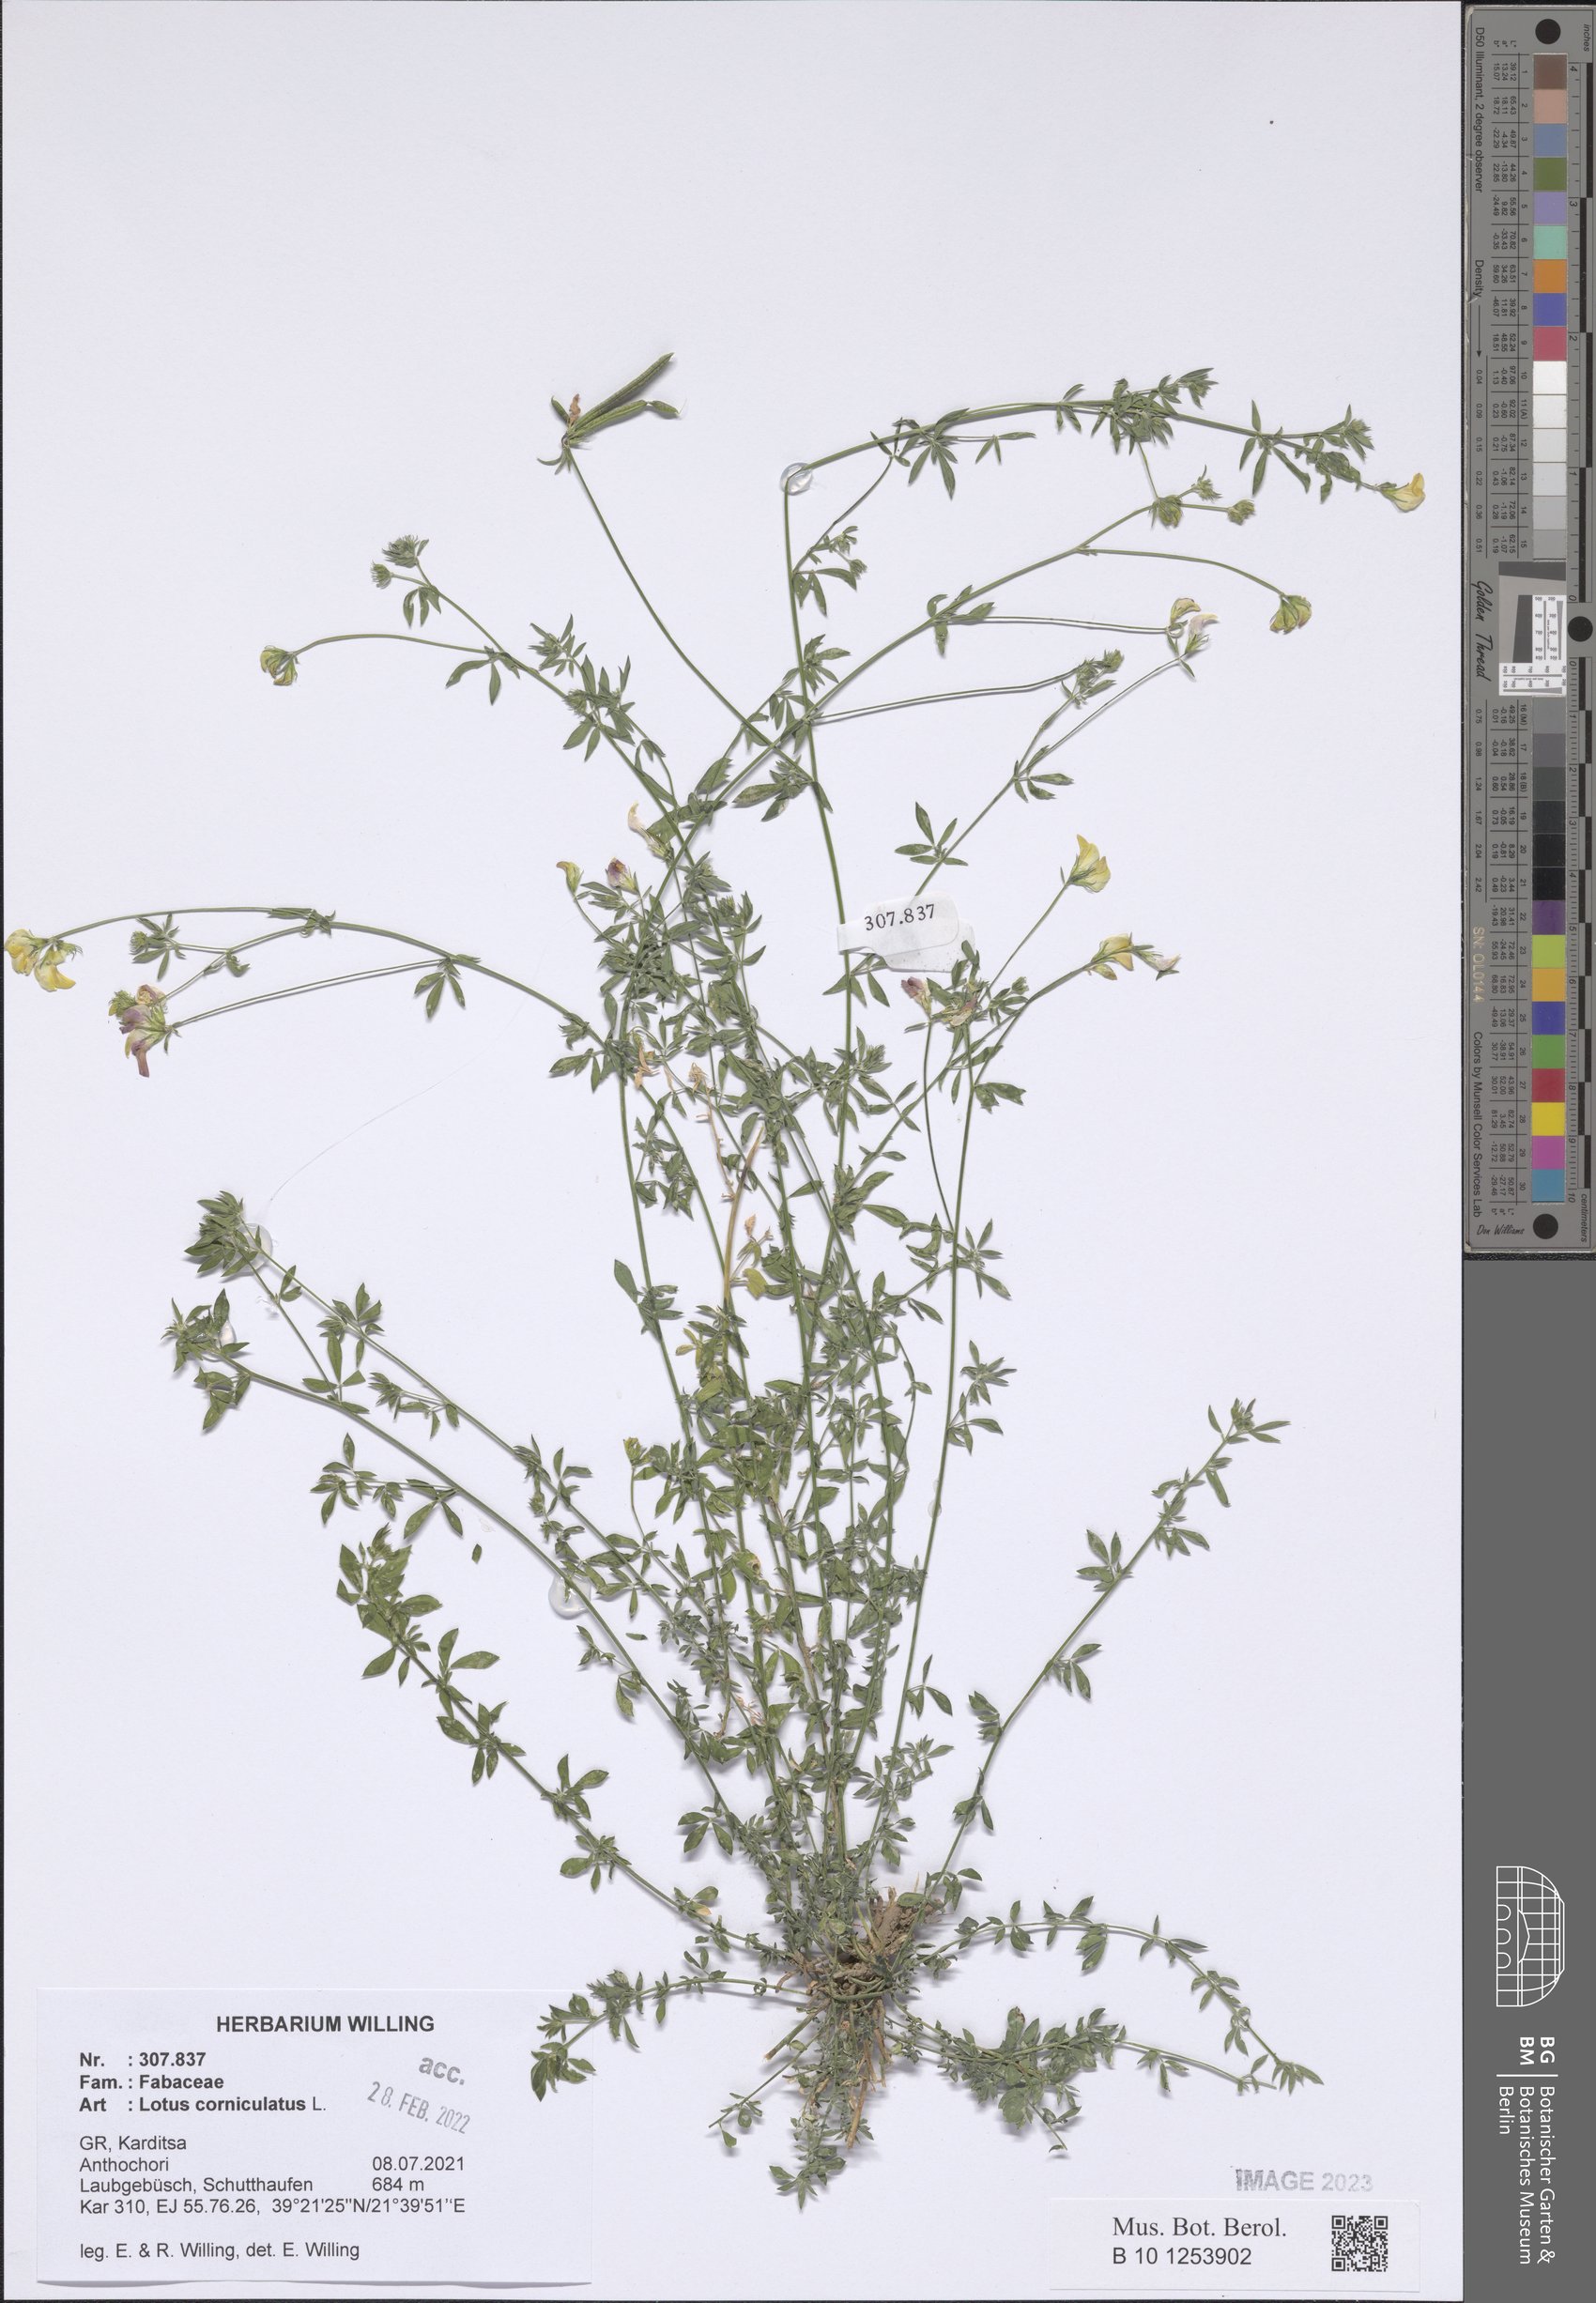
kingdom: Plantae
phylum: Tracheophyta
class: Magnoliopsida
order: Fabales
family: Fabaceae
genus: Lotus
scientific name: Lotus corniculatus
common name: Common bird's-foot-trefoil
